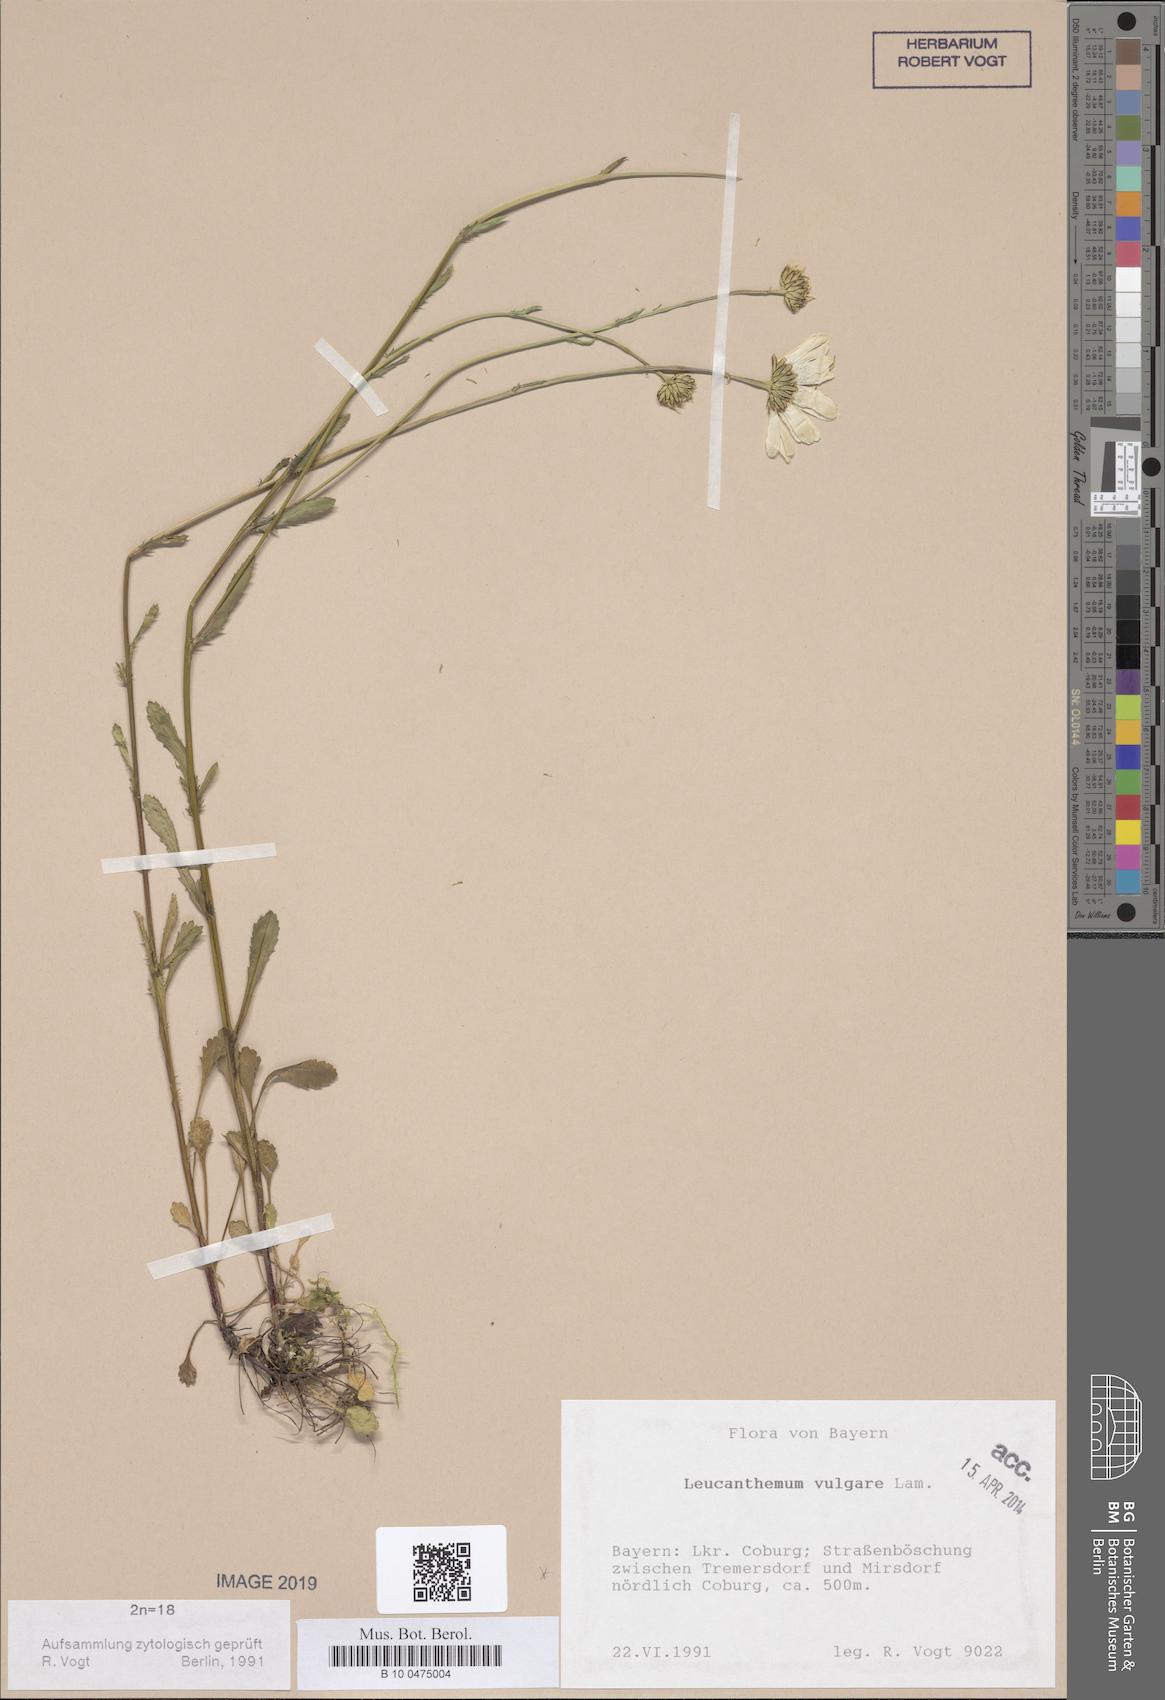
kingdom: Plantae
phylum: Tracheophyta
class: Magnoliopsida
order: Asterales
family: Asteraceae
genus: Leucanthemum
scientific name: Leucanthemum vulgare
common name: Oxeye daisy
